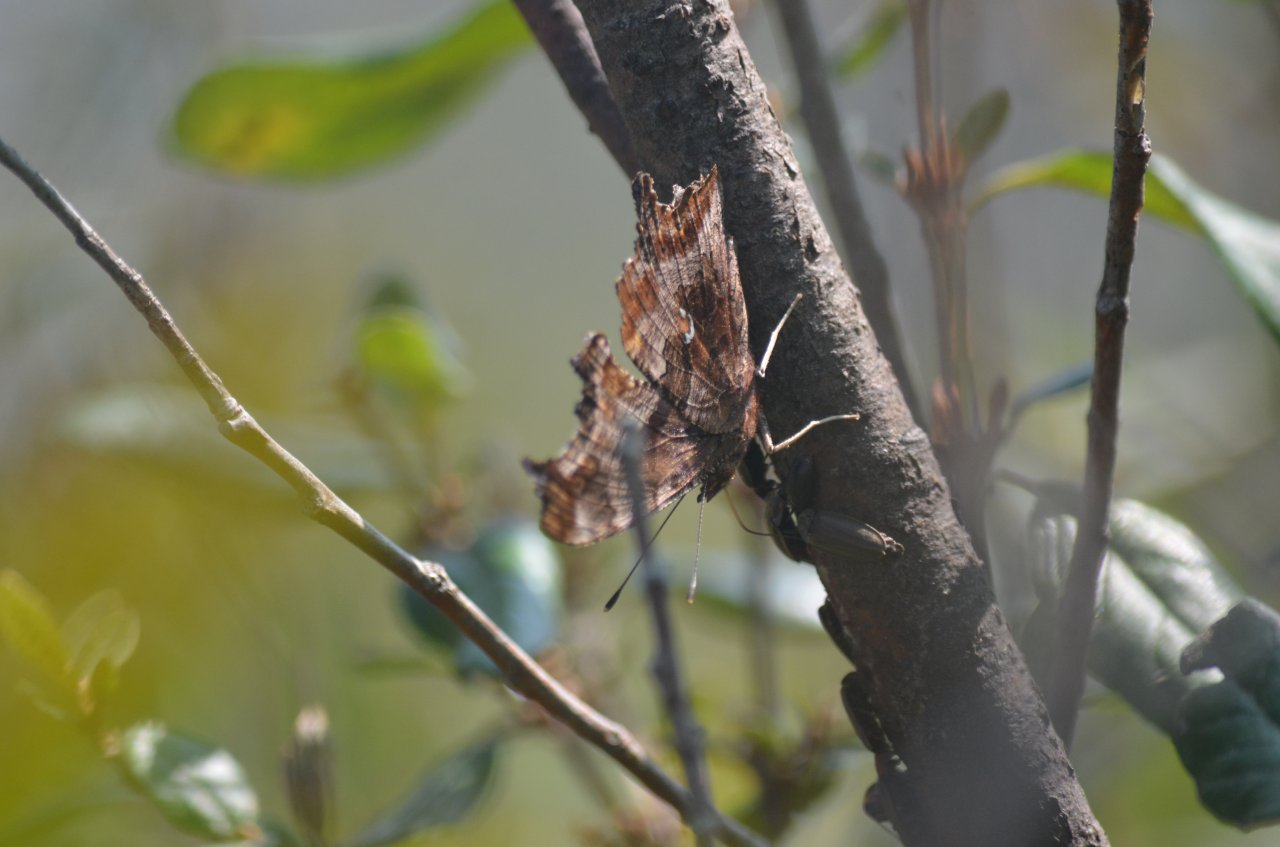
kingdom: Animalia
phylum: Arthropoda
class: Insecta
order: Lepidoptera
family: Nymphalidae
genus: Polygonia
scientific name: Polygonia comma
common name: Eastern Comma
